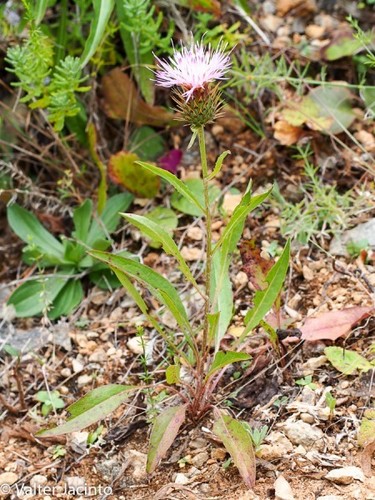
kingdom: Plantae
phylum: Tracheophyta
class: Magnoliopsida
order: Asterales
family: Asteraceae
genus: Klasea
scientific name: Klasea baetica
